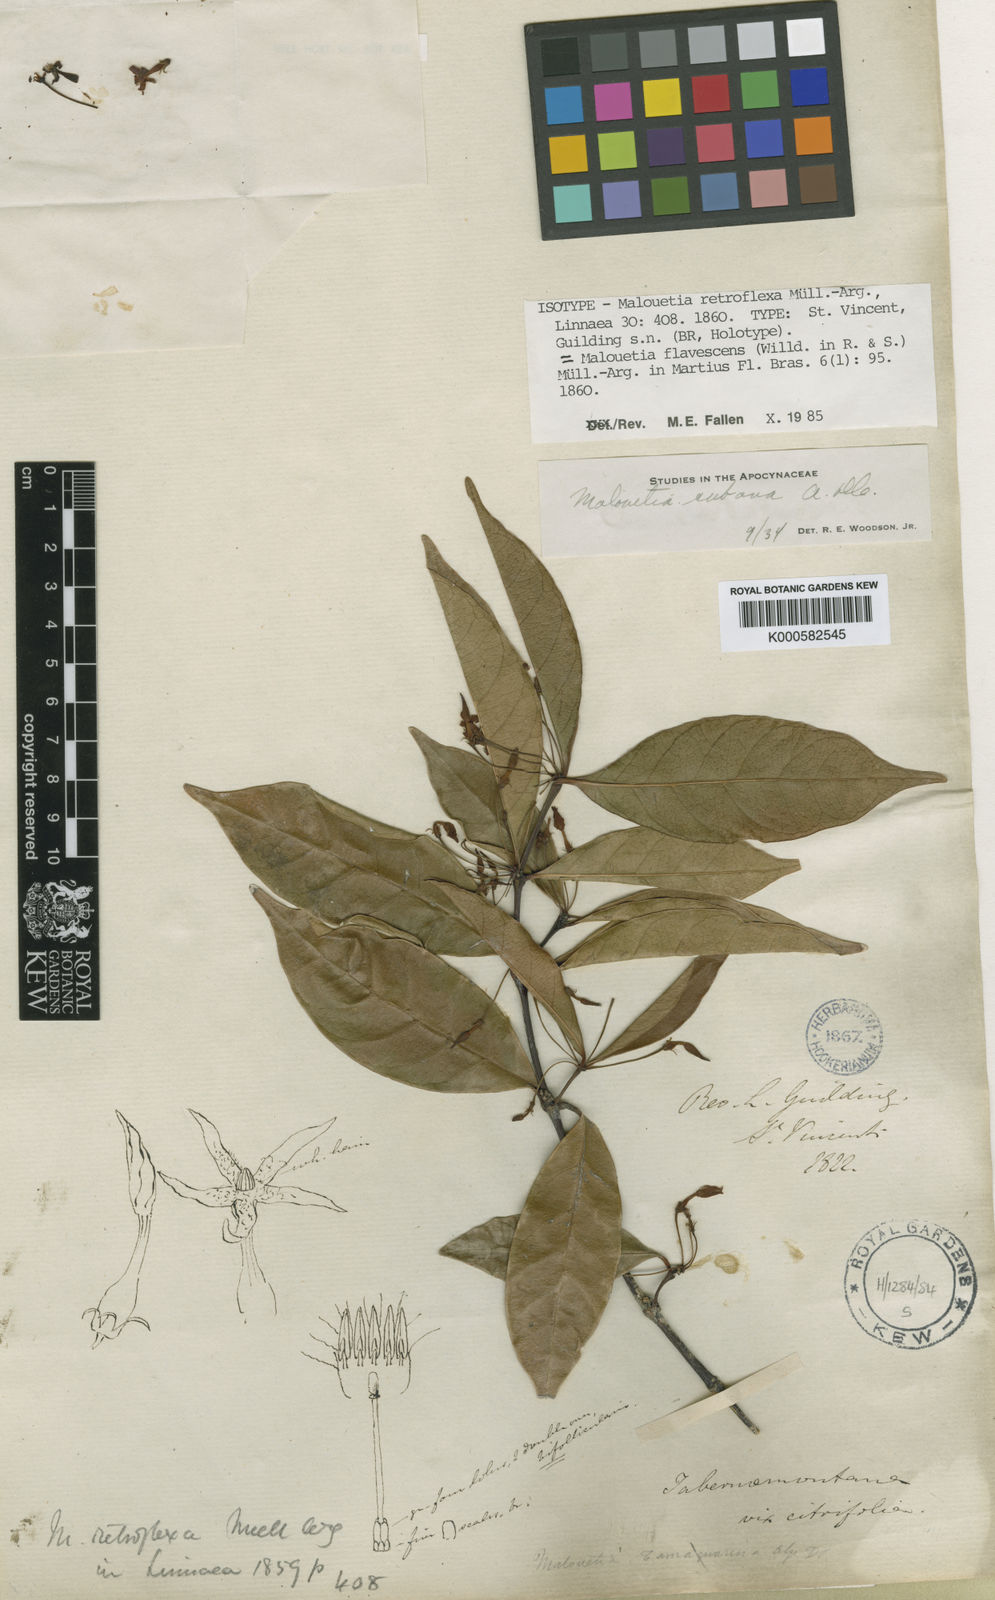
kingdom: Plantae
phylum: Tracheophyta
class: Magnoliopsida
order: Gentianales
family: Apocynaceae
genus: Malouetia
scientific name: Malouetia cubana
